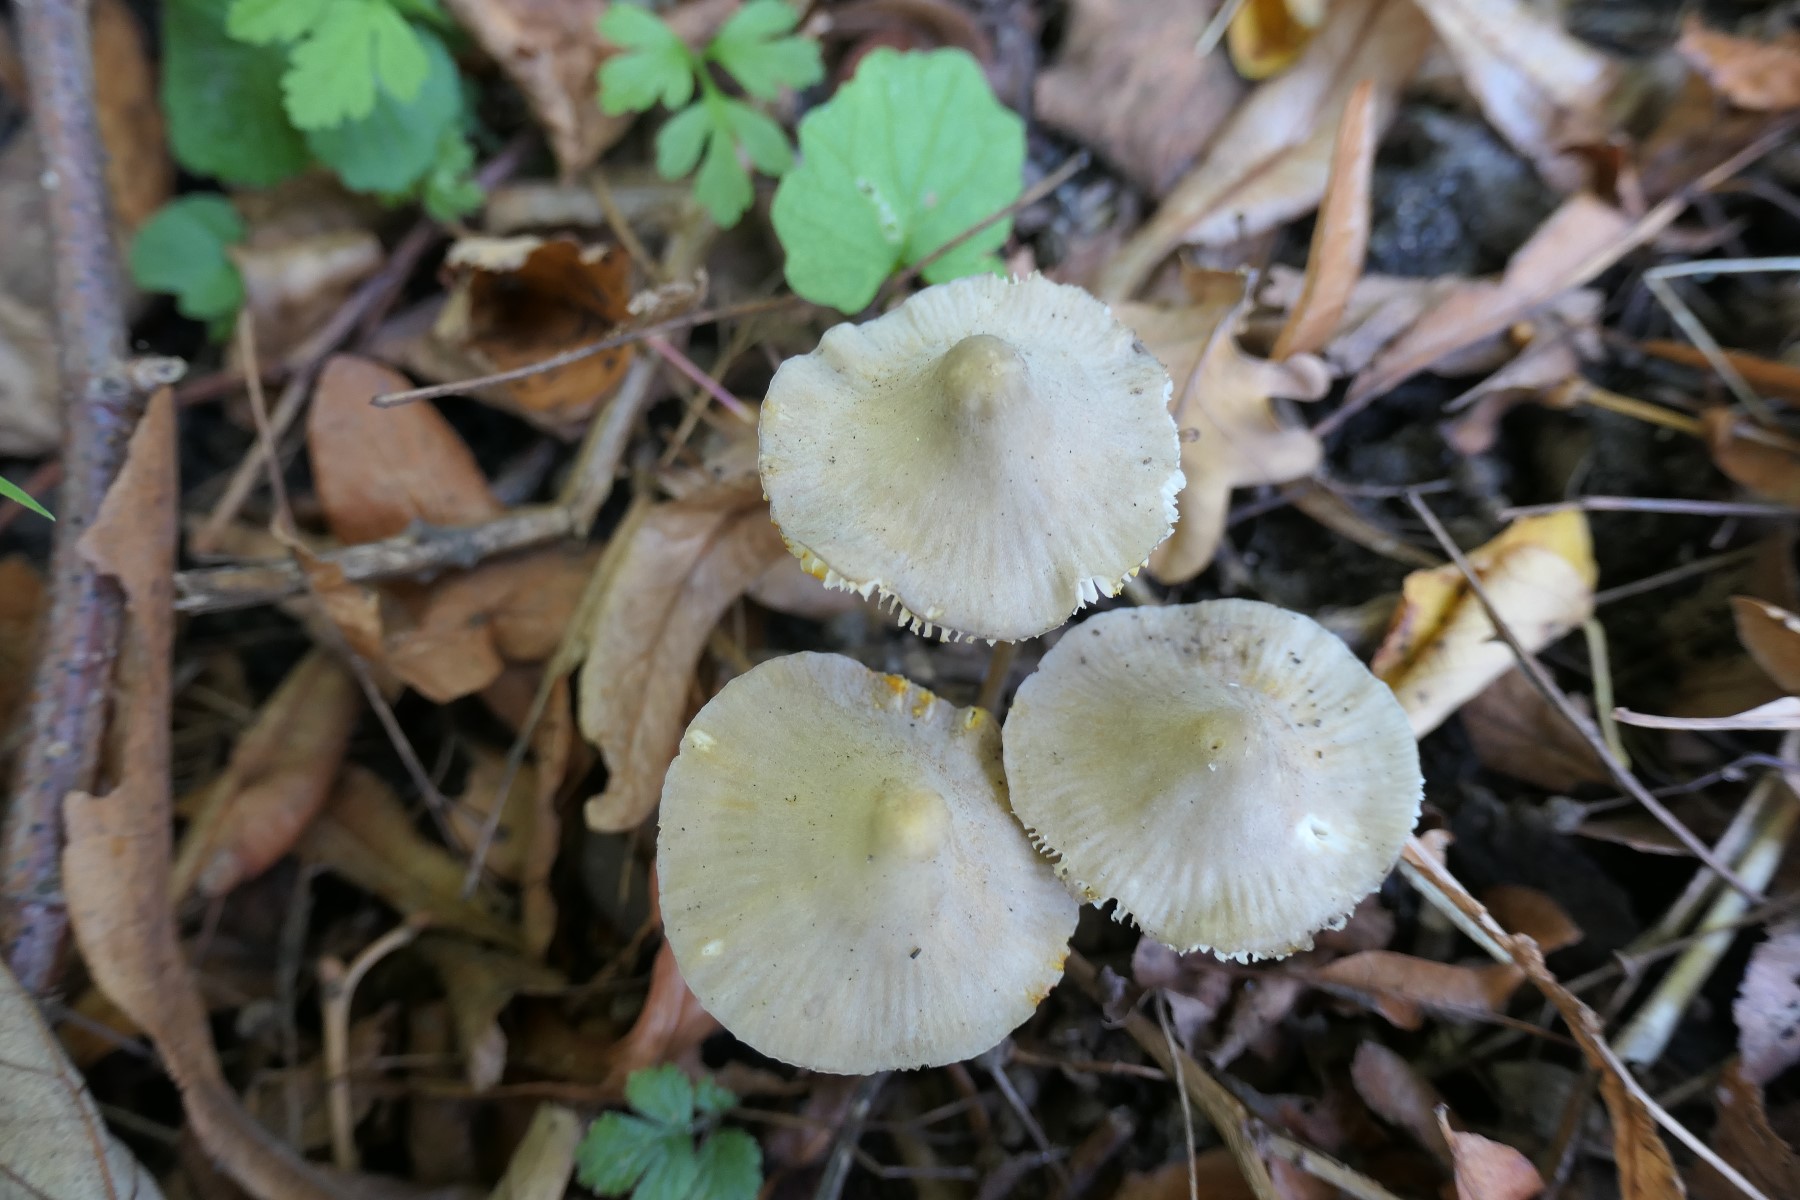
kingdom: Fungi
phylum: Basidiomycota
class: Agaricomycetes
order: Agaricales
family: Mycenaceae
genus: Mycena
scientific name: Mycena crocata
